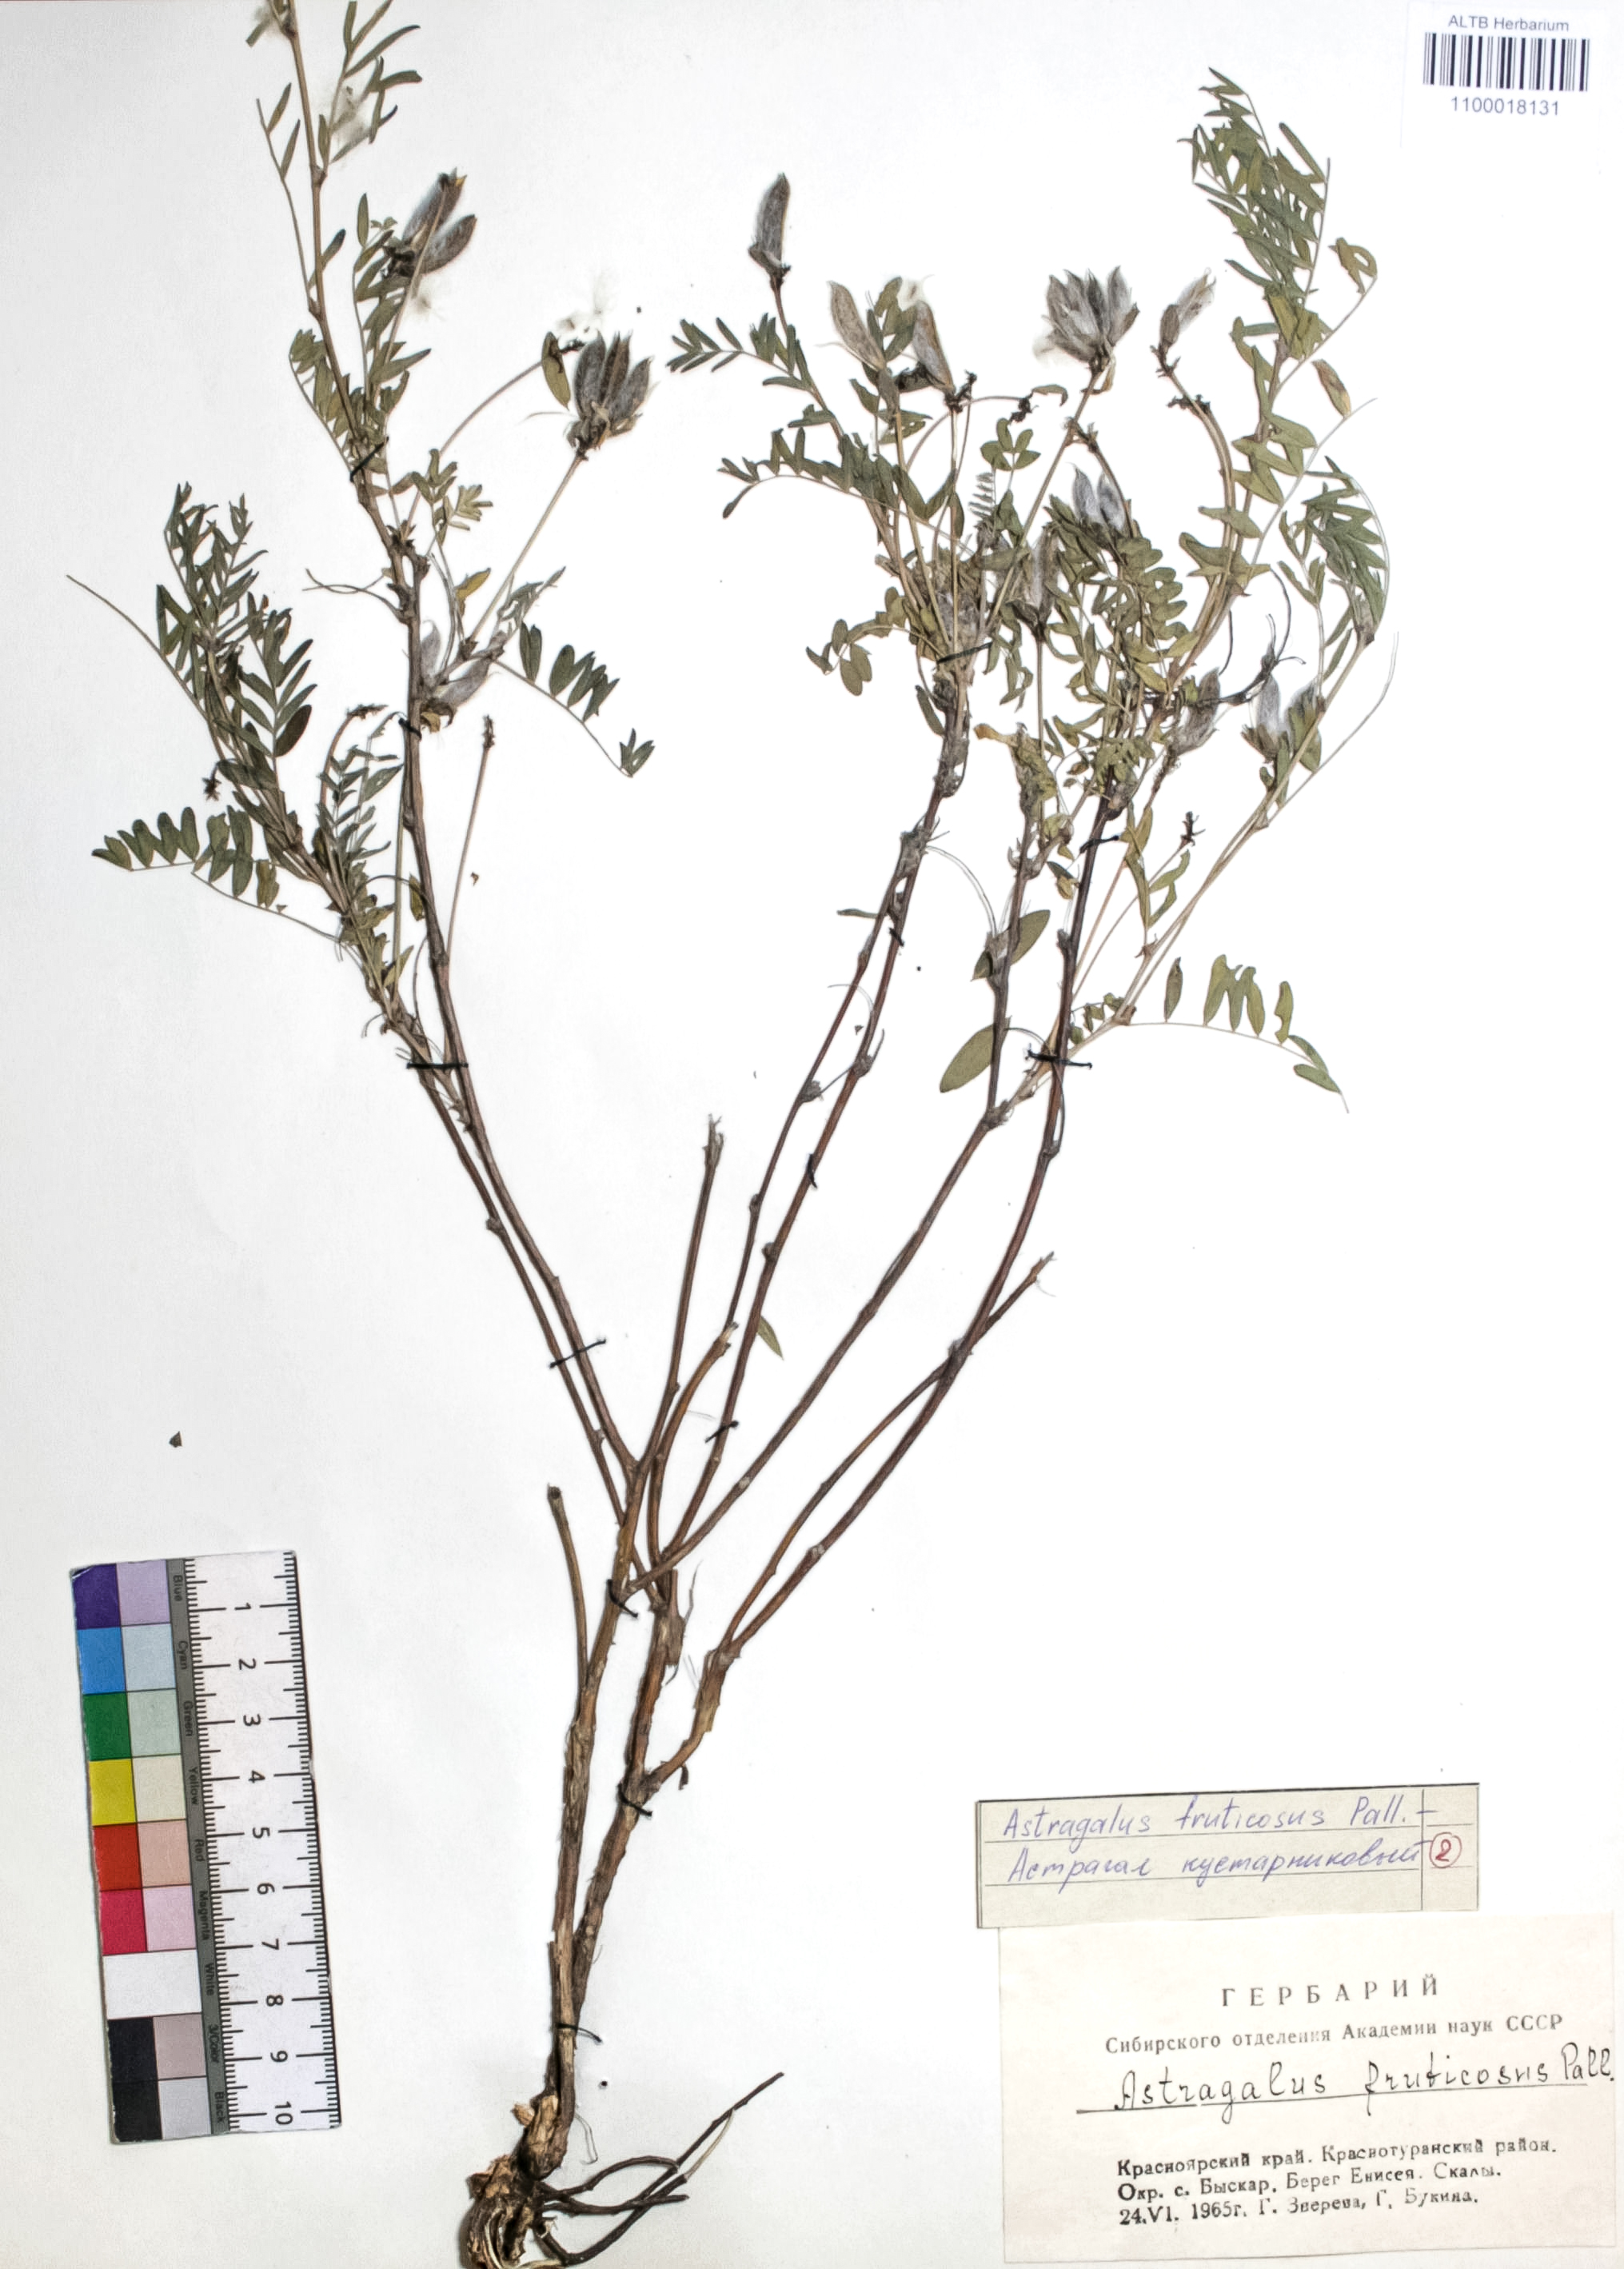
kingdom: Plantae
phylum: Tracheophyta
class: Magnoliopsida
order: Fabales
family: Fabaceae
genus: Astragalus
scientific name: Astragalus syriacus
